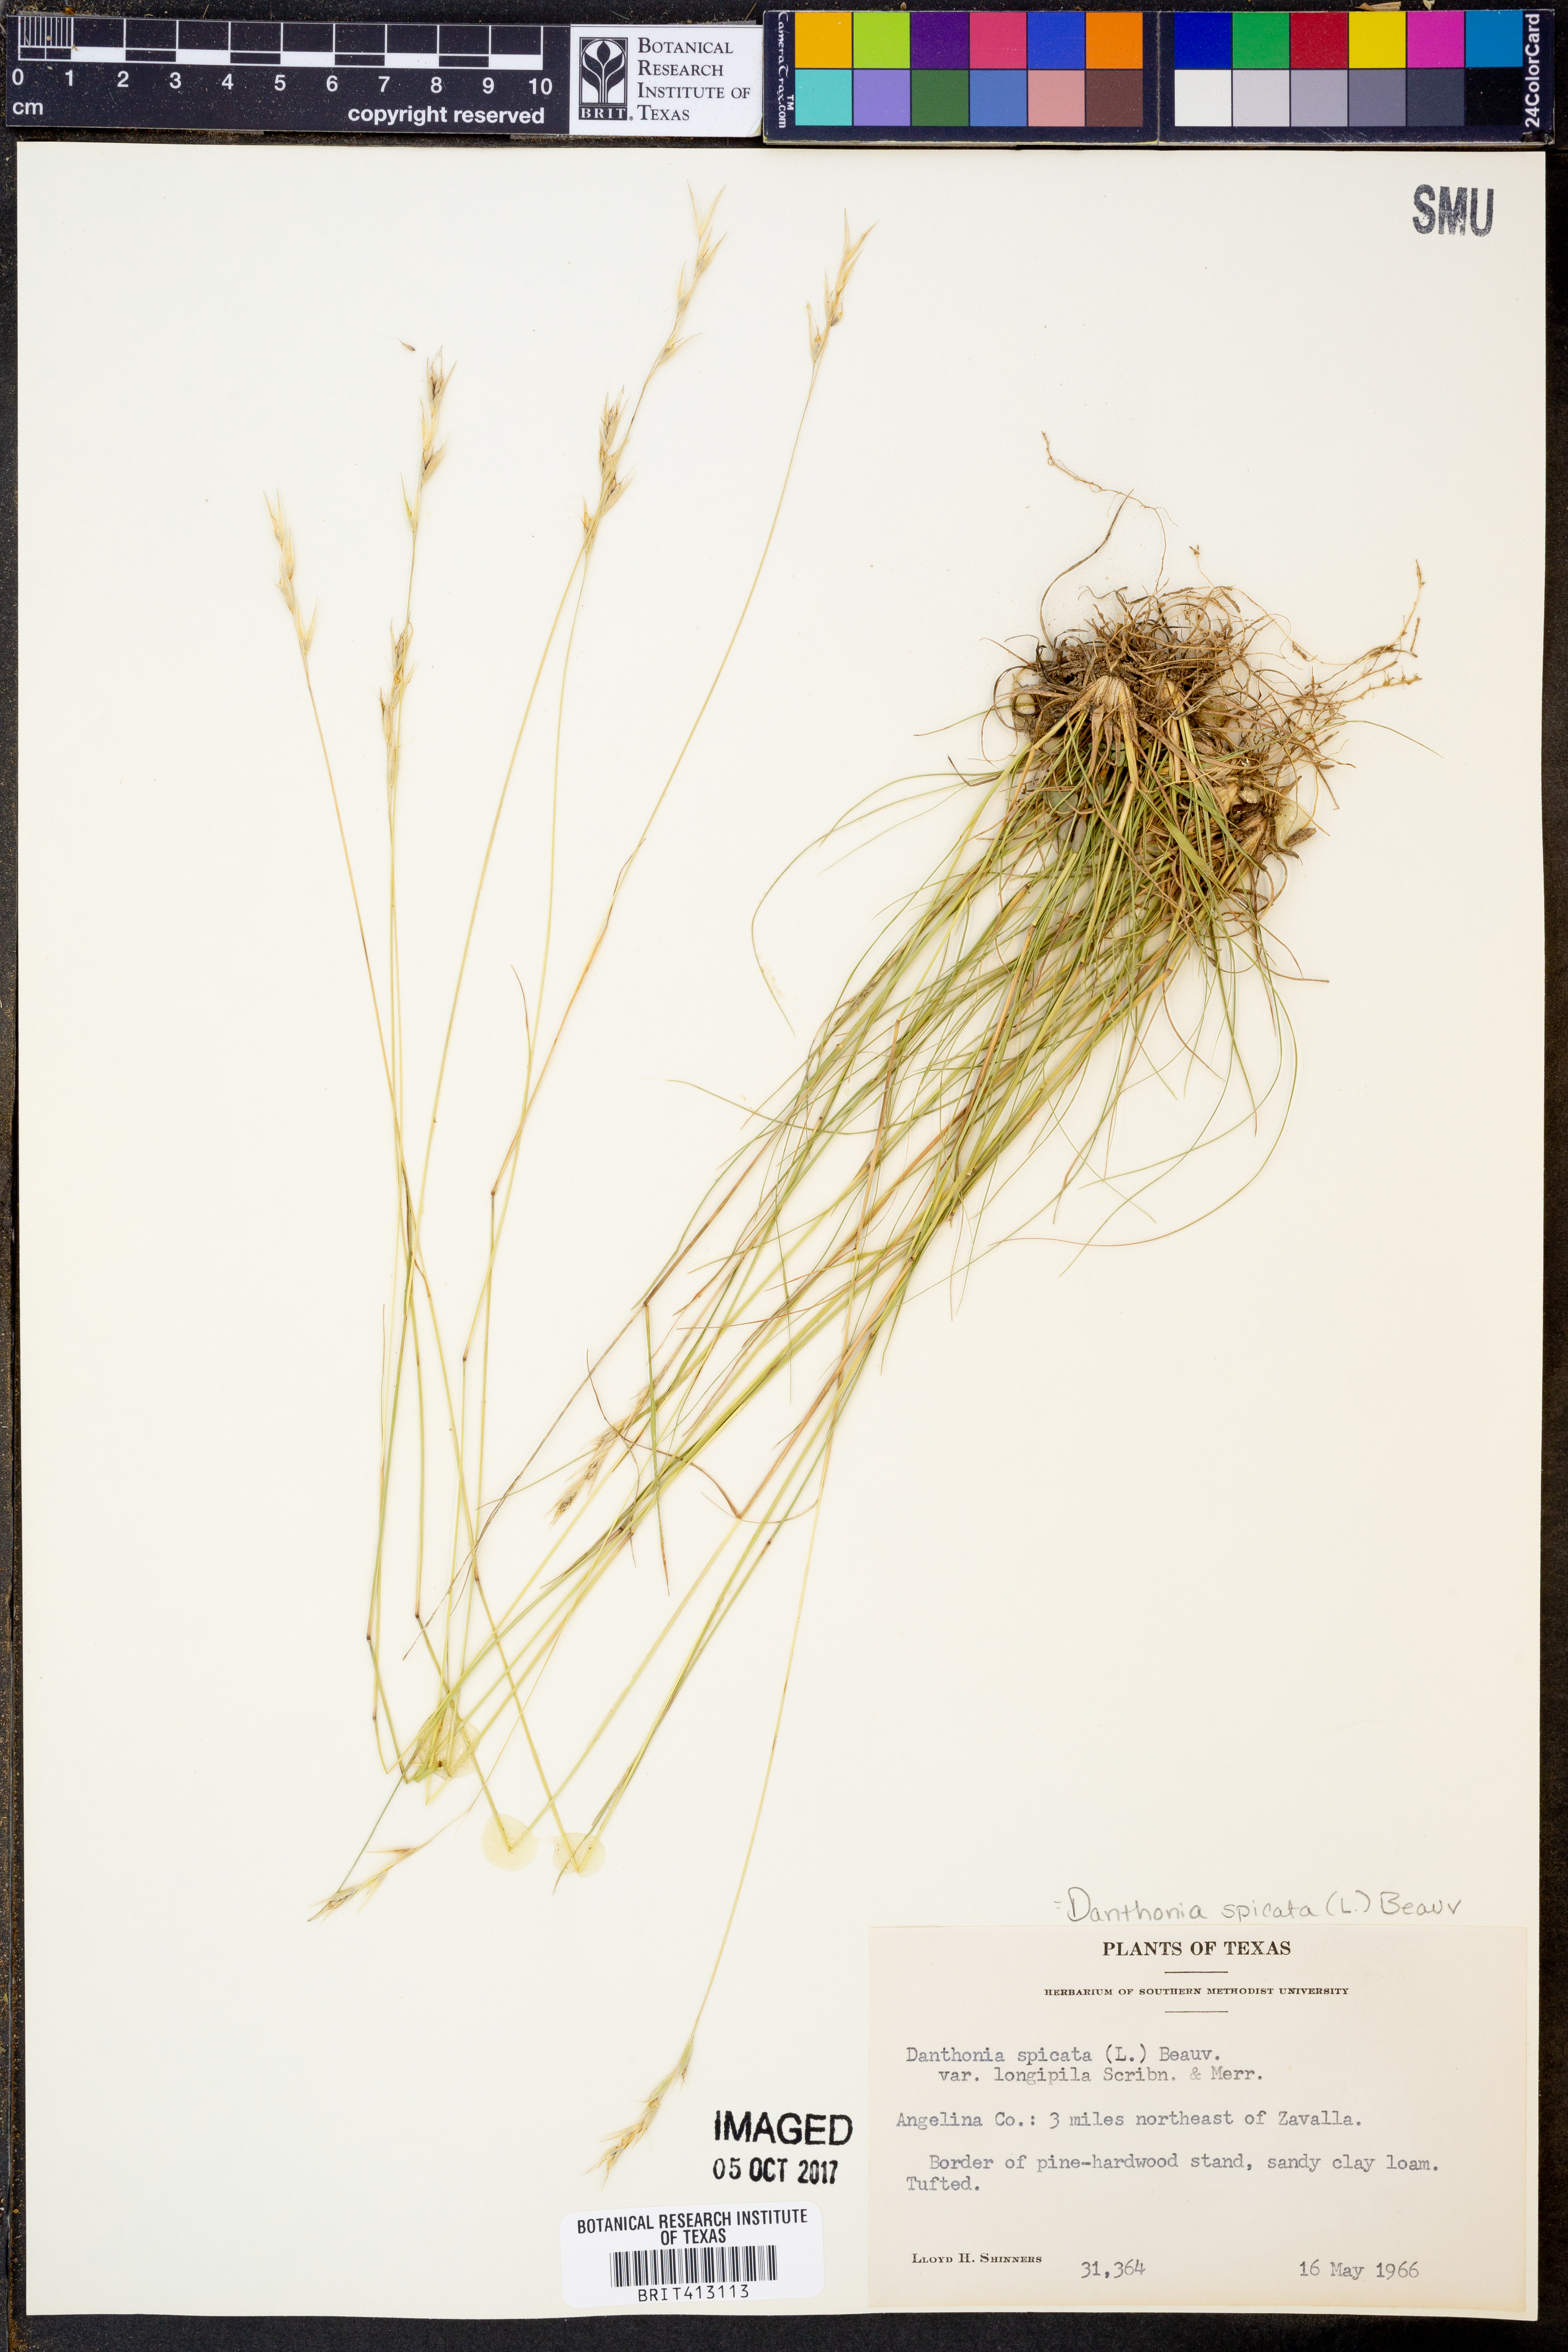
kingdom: Plantae
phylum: Tracheophyta
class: Liliopsida
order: Poales
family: Poaceae
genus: Danthonia
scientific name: Danthonia spicata
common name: Common wild oatgrass
